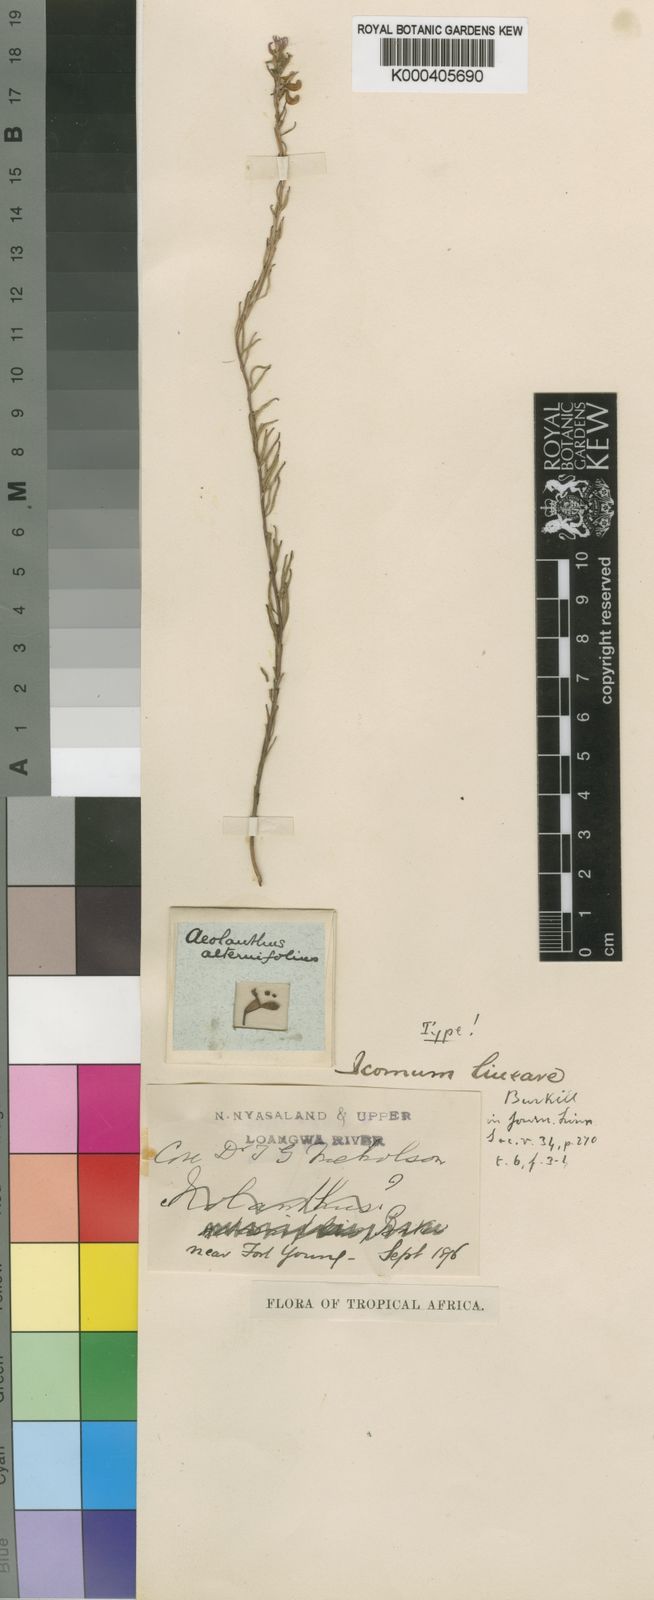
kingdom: Plantae
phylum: Tracheophyta
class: Magnoliopsida
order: Lamiales
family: Lamiaceae
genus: Aeollanthus
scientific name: Aeollanthus subacaulis
